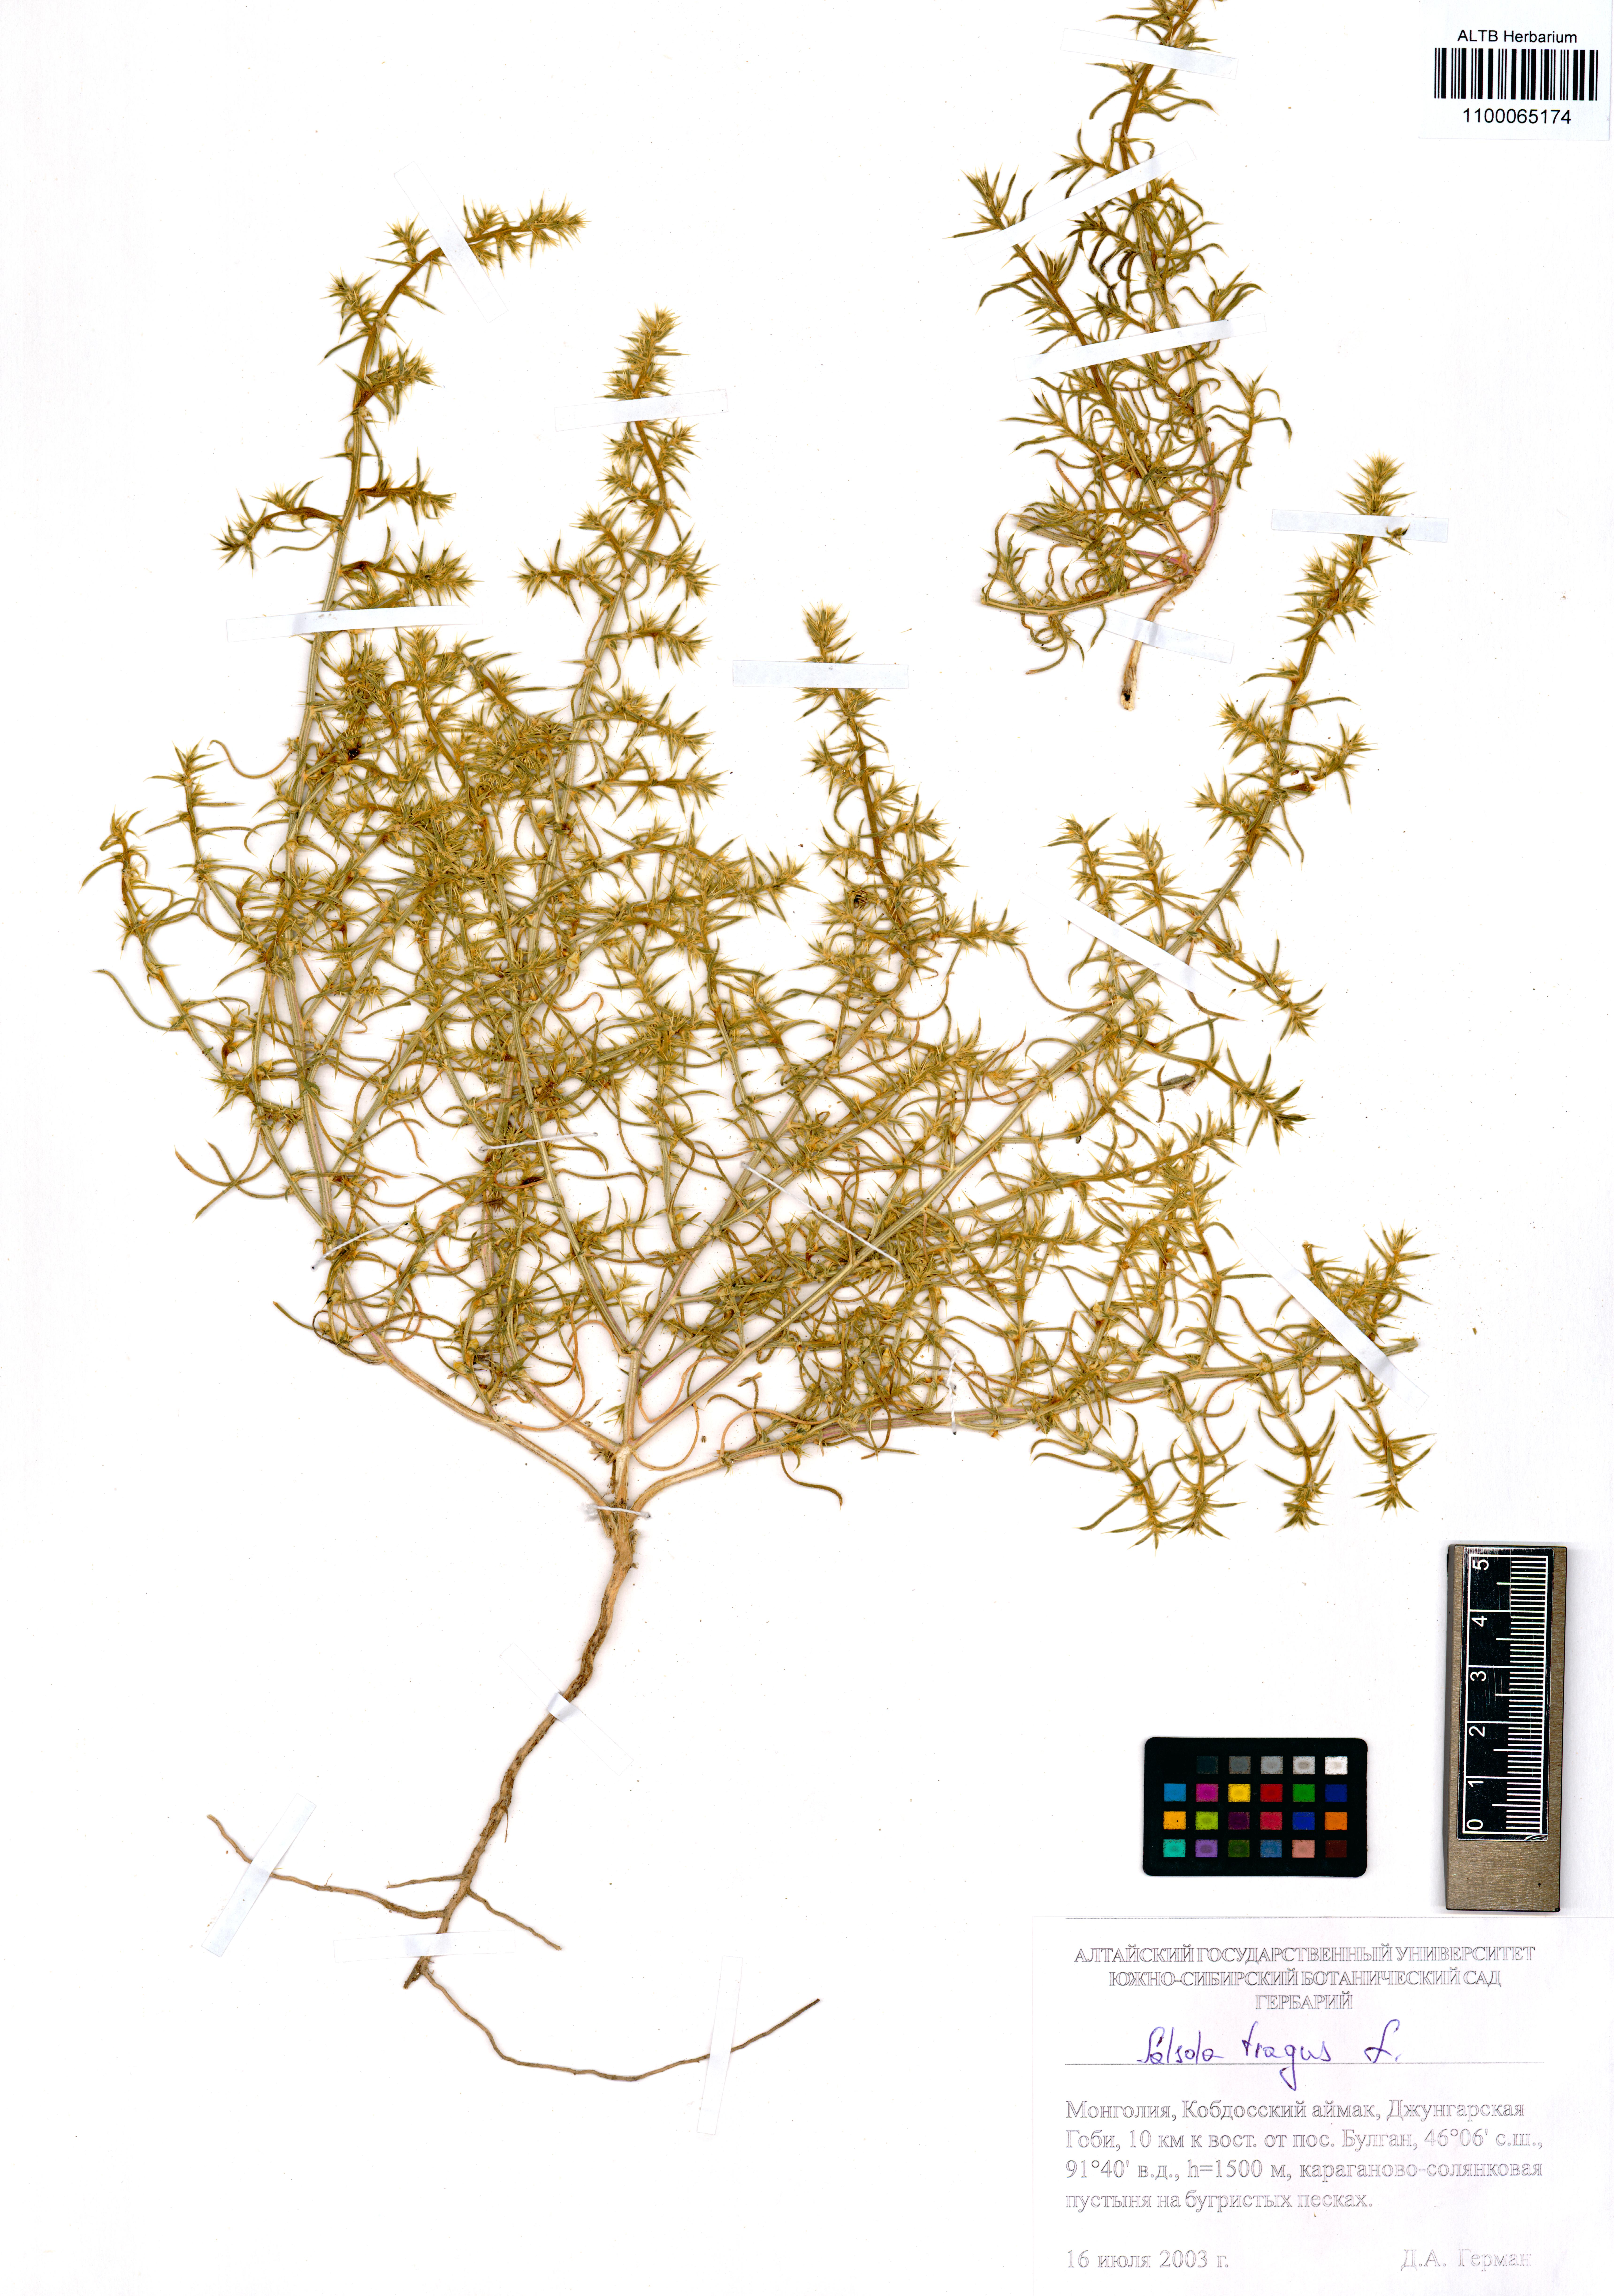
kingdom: Plantae
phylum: Tracheophyta
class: Magnoliopsida
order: Caryophyllales
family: Amaranthaceae
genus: Salsola
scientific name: Salsola tragus
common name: Prickly russian thistle
